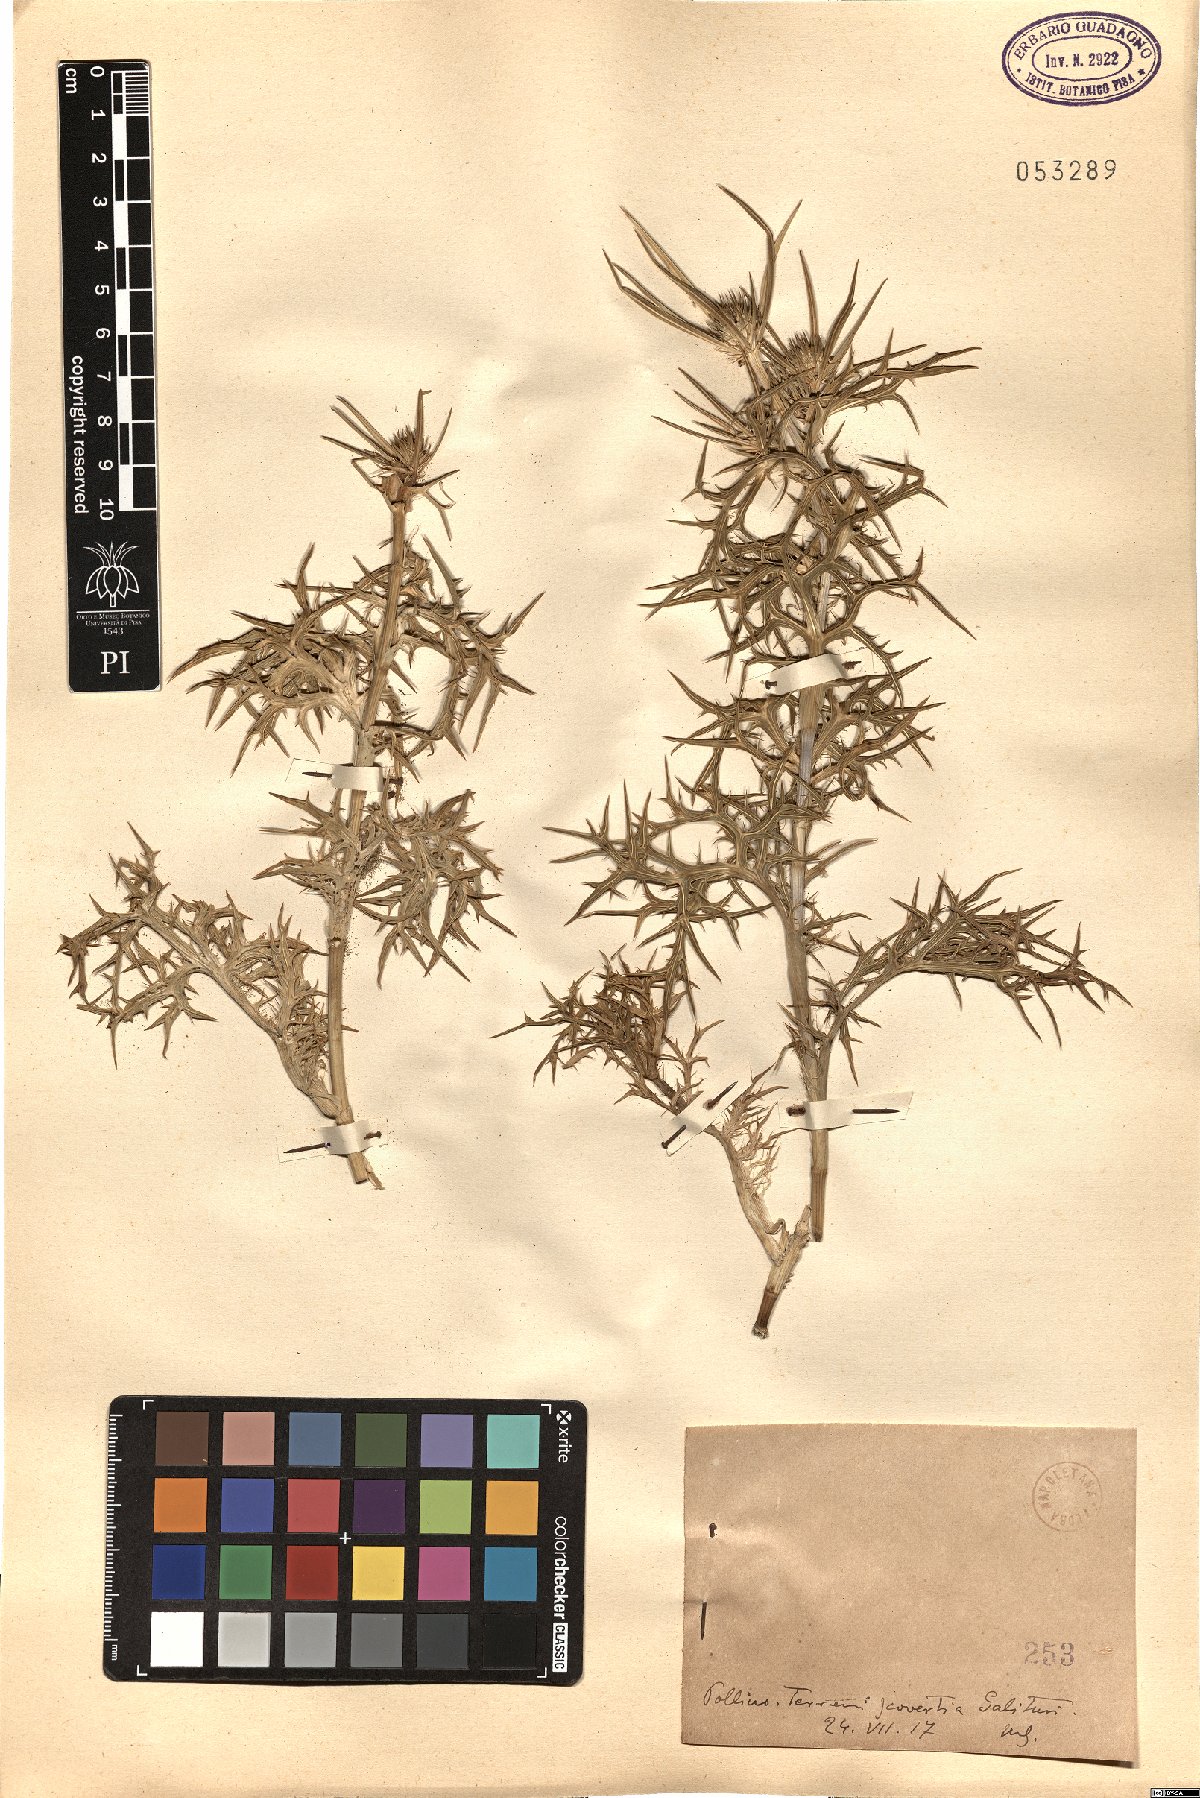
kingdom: Plantae
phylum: Tracheophyta
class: Magnoliopsida
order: Apiales
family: Apiaceae
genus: Eryngium
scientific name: Eryngium
